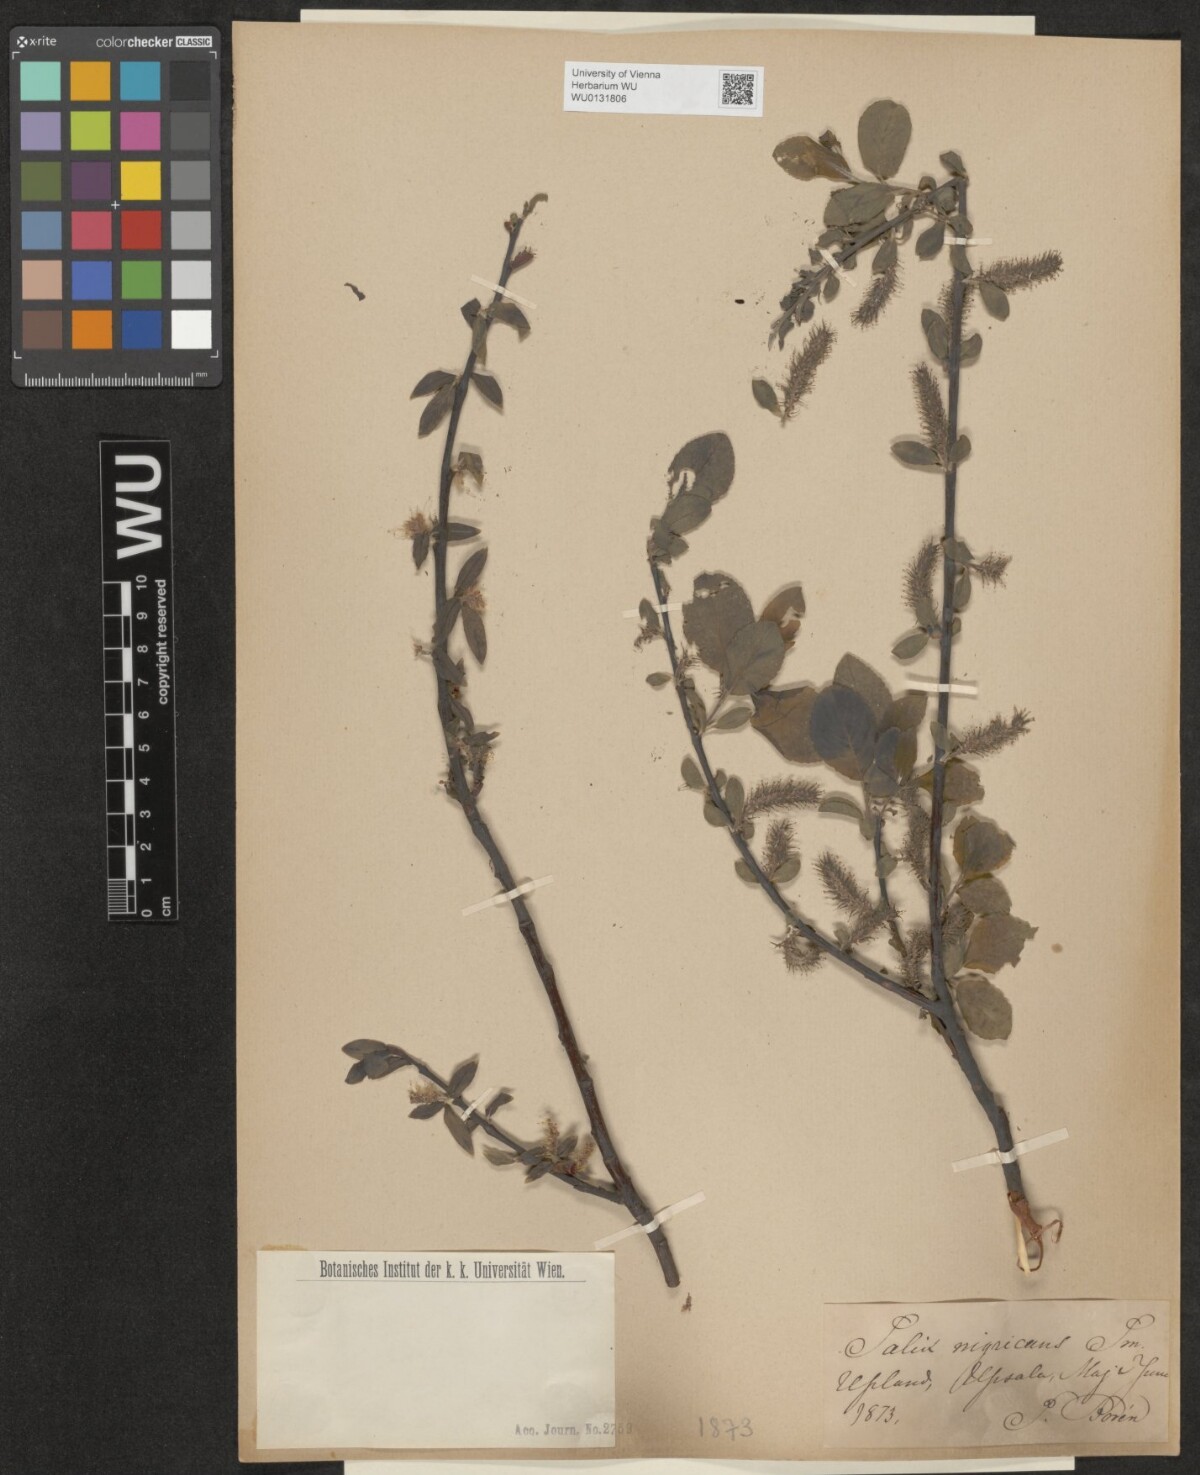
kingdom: Plantae
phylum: Tracheophyta
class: Magnoliopsida
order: Malpighiales
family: Salicaceae
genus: Salix
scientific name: Salix myrsinifolia
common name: Dark-leaved willow
